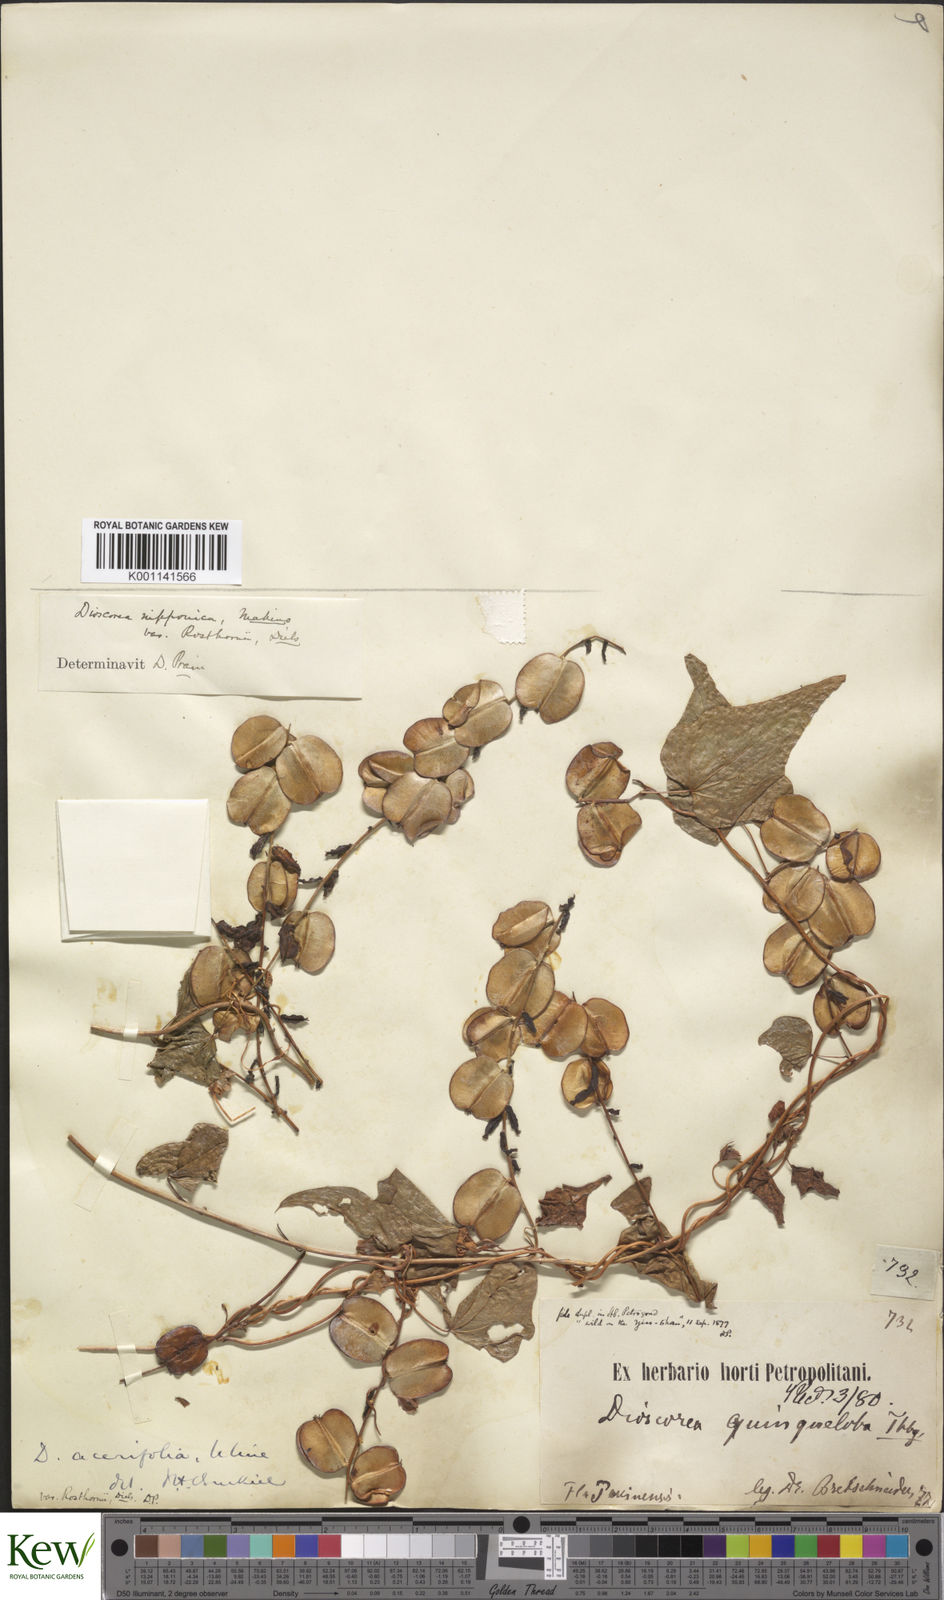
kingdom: Plantae
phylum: Tracheophyta
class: Liliopsida
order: Dioscoreales
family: Dioscoreaceae
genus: Dioscorea
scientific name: Dioscorea nipponica
